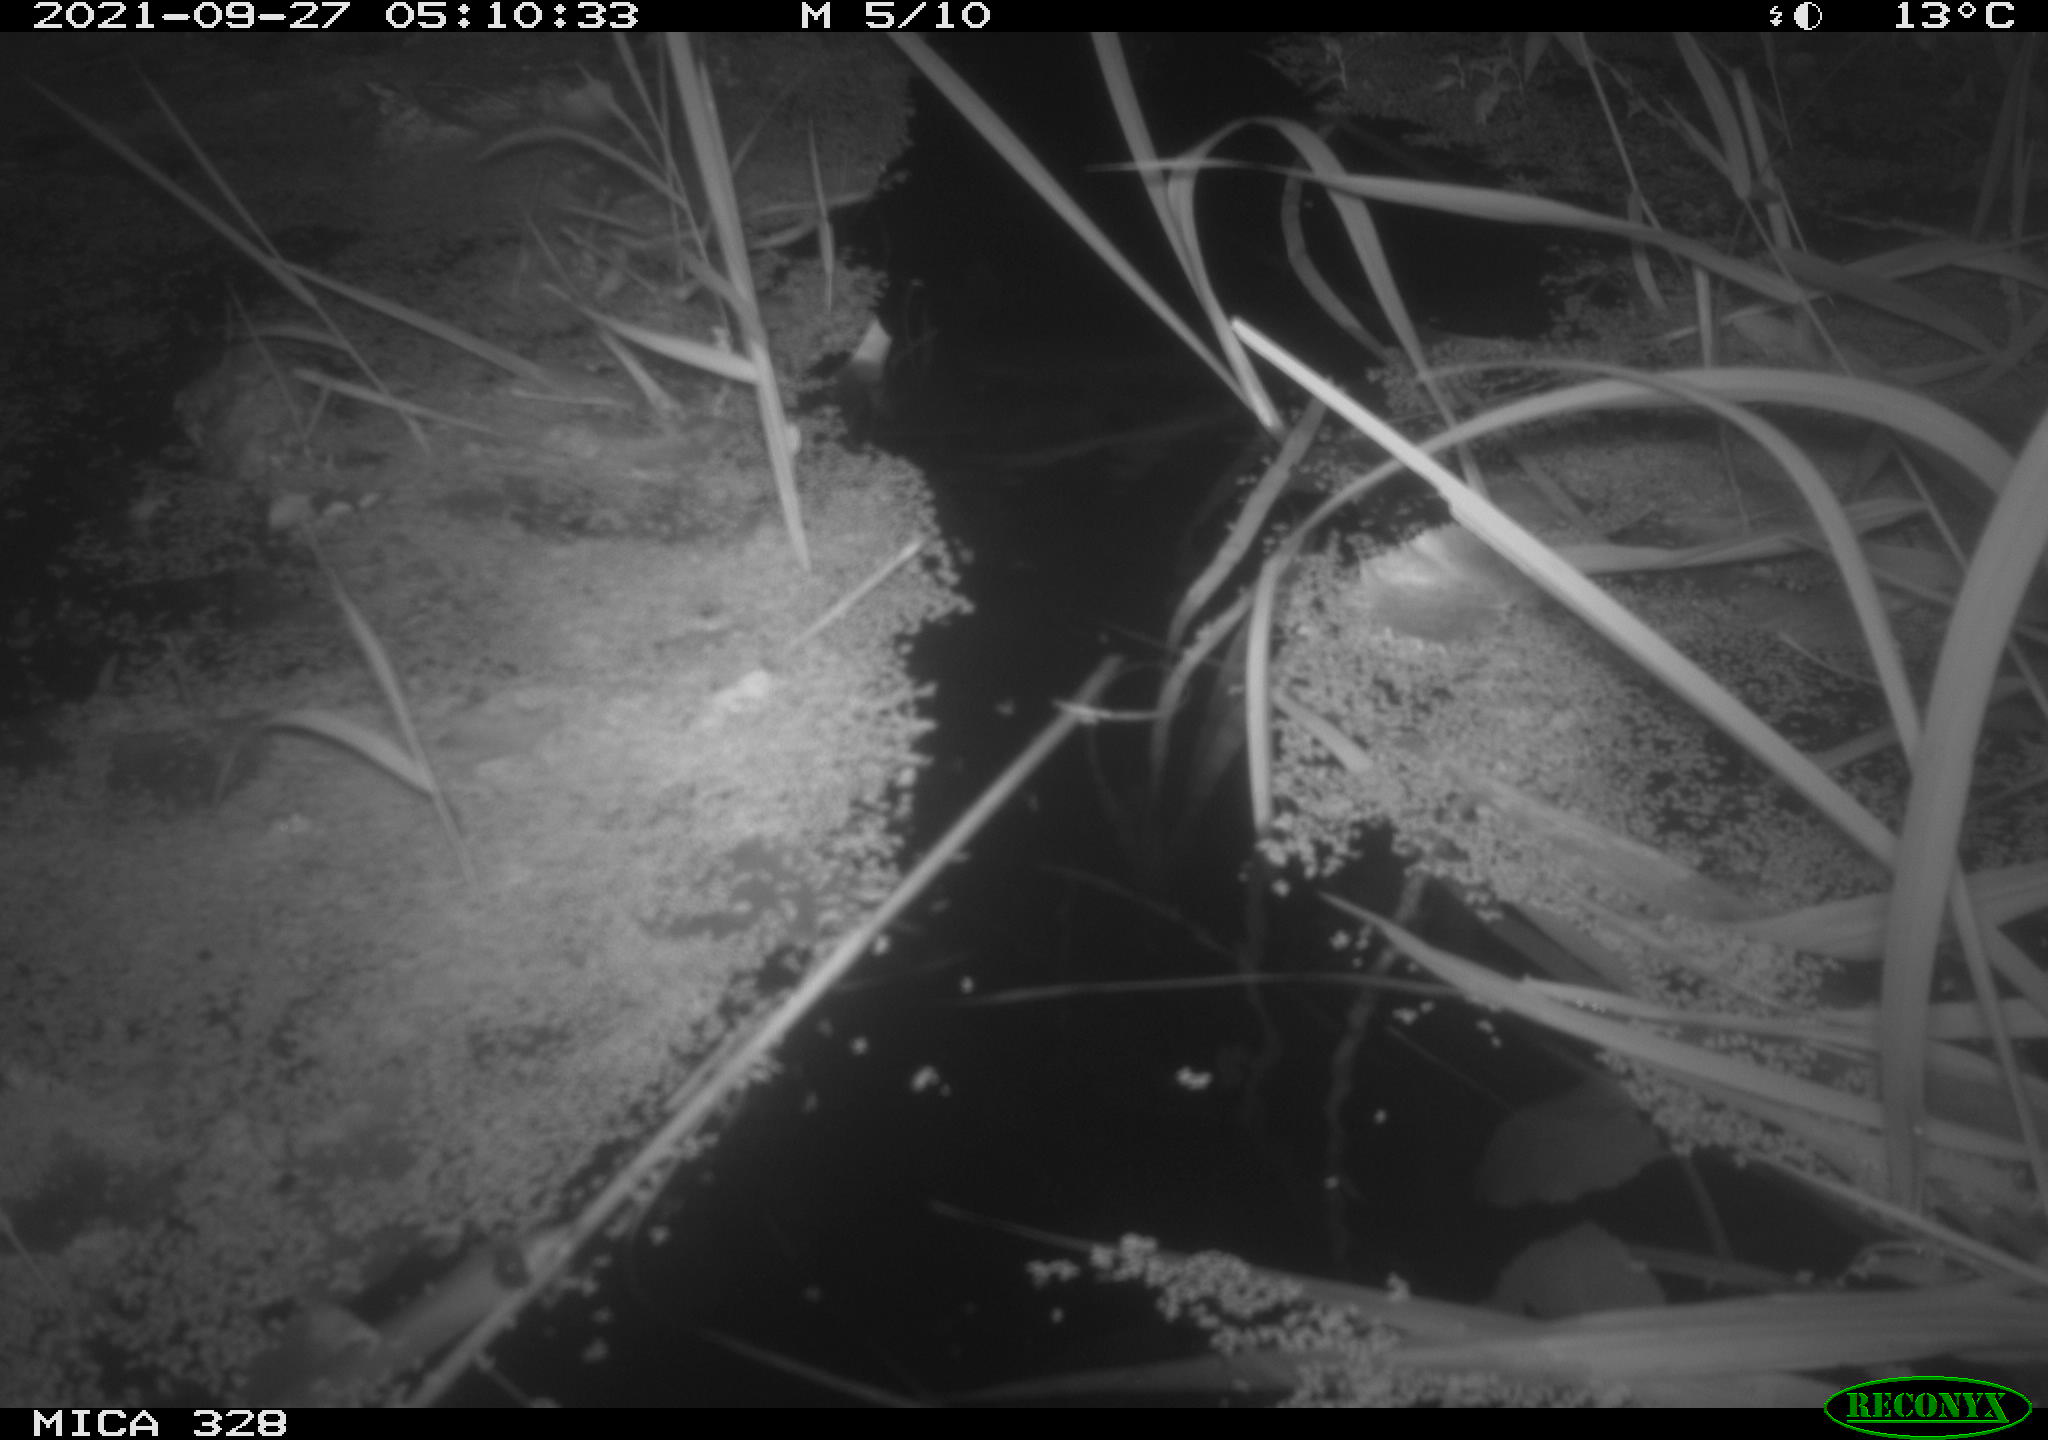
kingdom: Animalia
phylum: Chordata
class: Mammalia
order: Rodentia
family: Cricetidae
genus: Ondatra
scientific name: Ondatra zibethicus
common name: Muskrat
